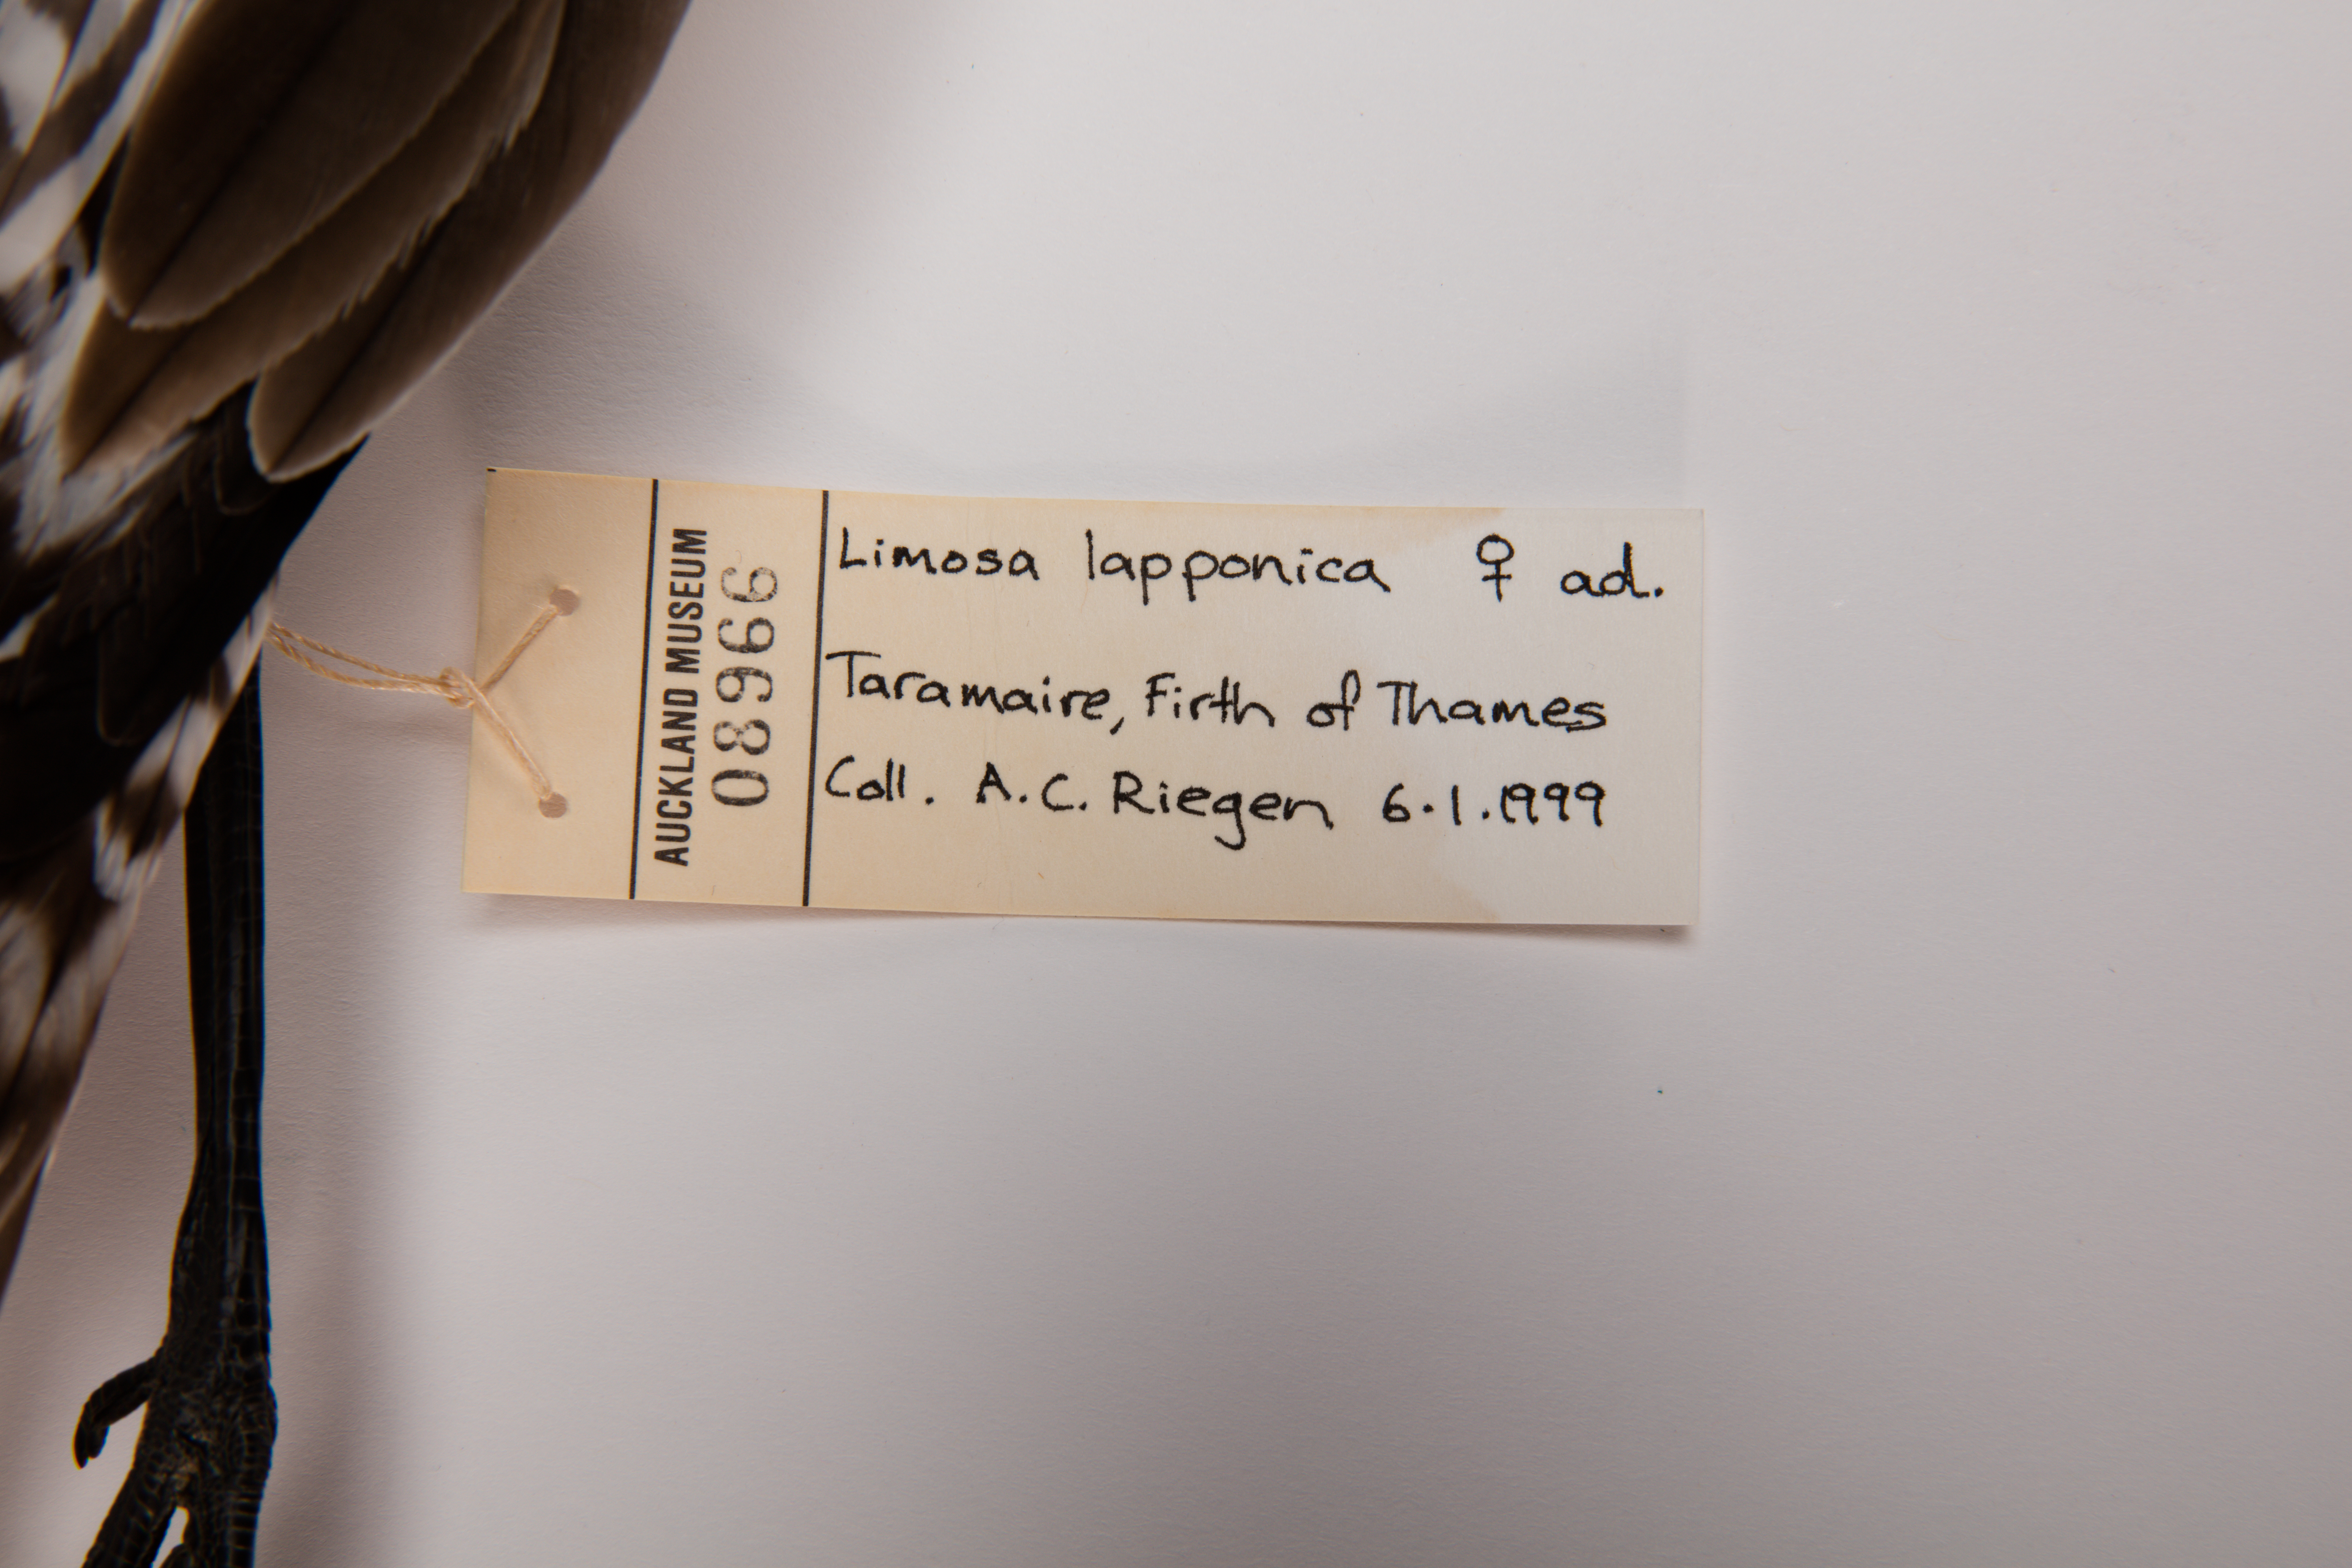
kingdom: Animalia
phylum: Chordata
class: Aves
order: Charadriiformes
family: Scolopacidae
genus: Limosa
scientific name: Limosa lapponica
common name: Bar-tailed godwit
